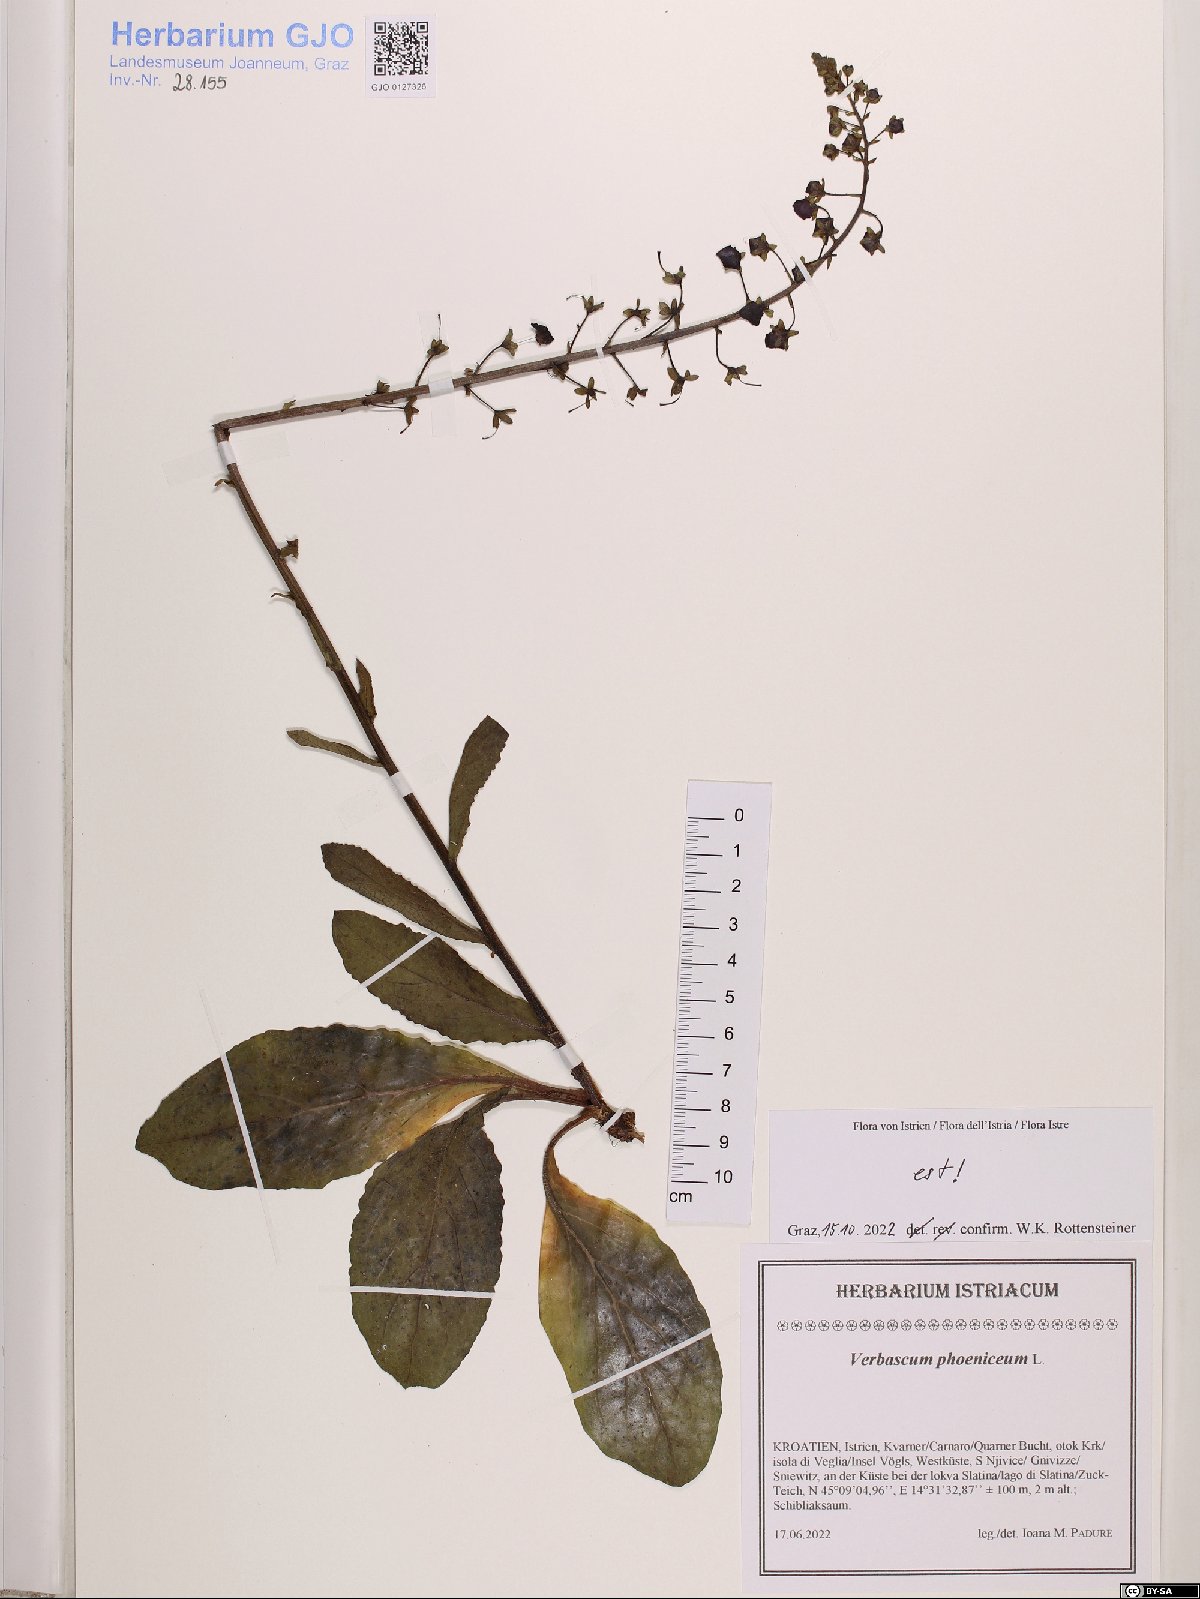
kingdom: Plantae
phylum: Tracheophyta
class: Magnoliopsida
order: Lamiales
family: Scrophulariaceae
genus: Verbascum
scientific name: Verbascum phoeniceum
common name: Purple mullein
